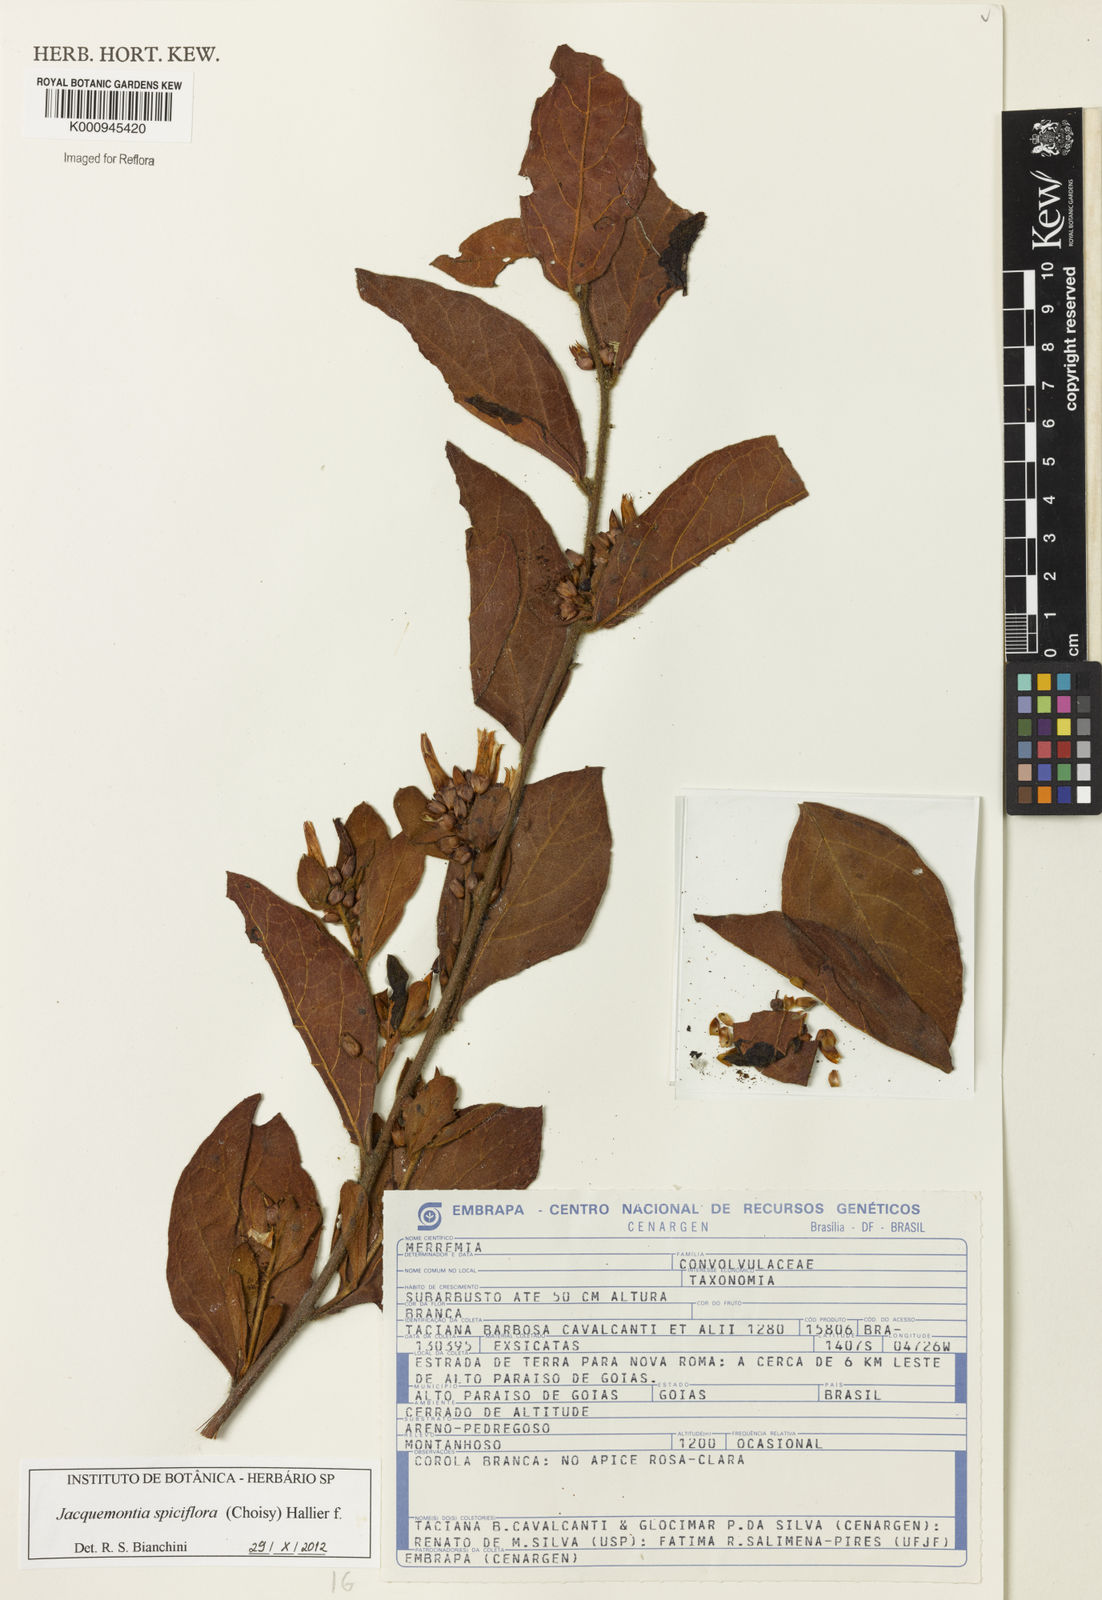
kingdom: Plantae
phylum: Tracheophyta
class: Magnoliopsida
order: Solanales
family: Convolvulaceae
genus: Jacquemontia
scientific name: Jacquemontia spiciflora
